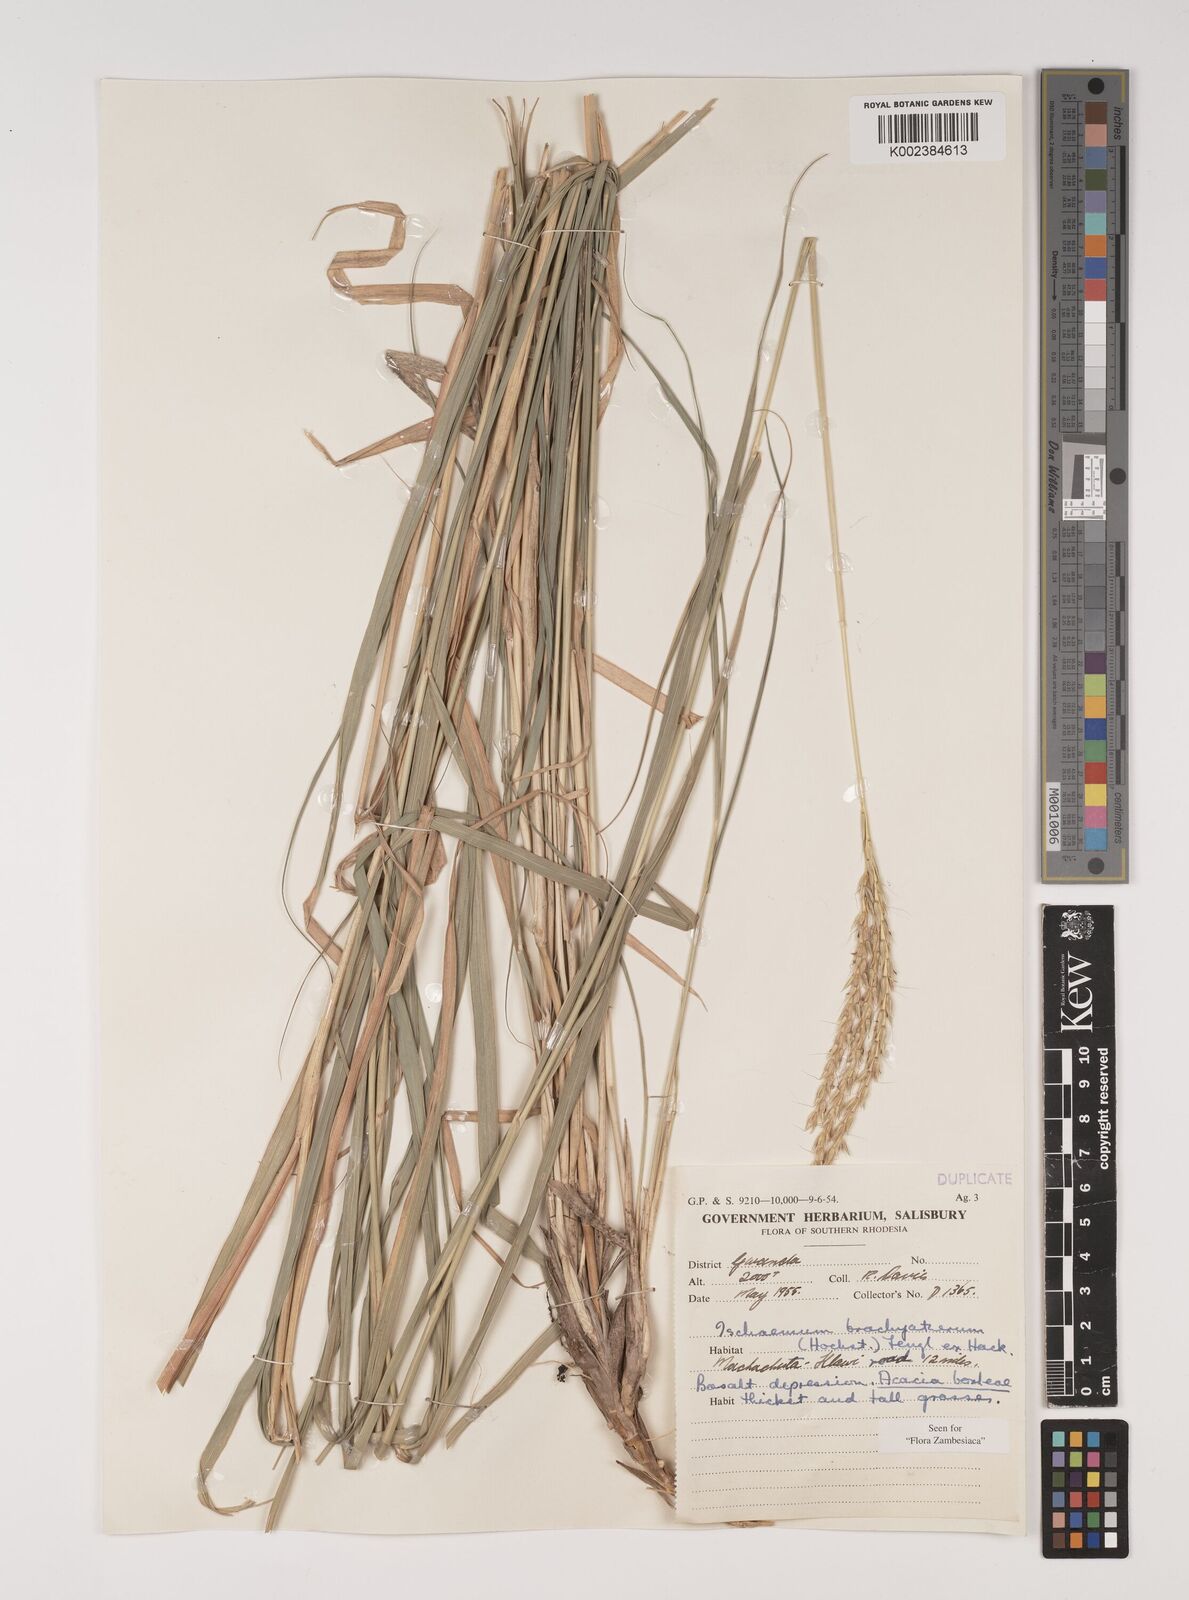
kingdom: Plantae
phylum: Tracheophyta
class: Liliopsida
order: Poales
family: Poaceae
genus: Ischaemum
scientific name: Ischaemum afrum
